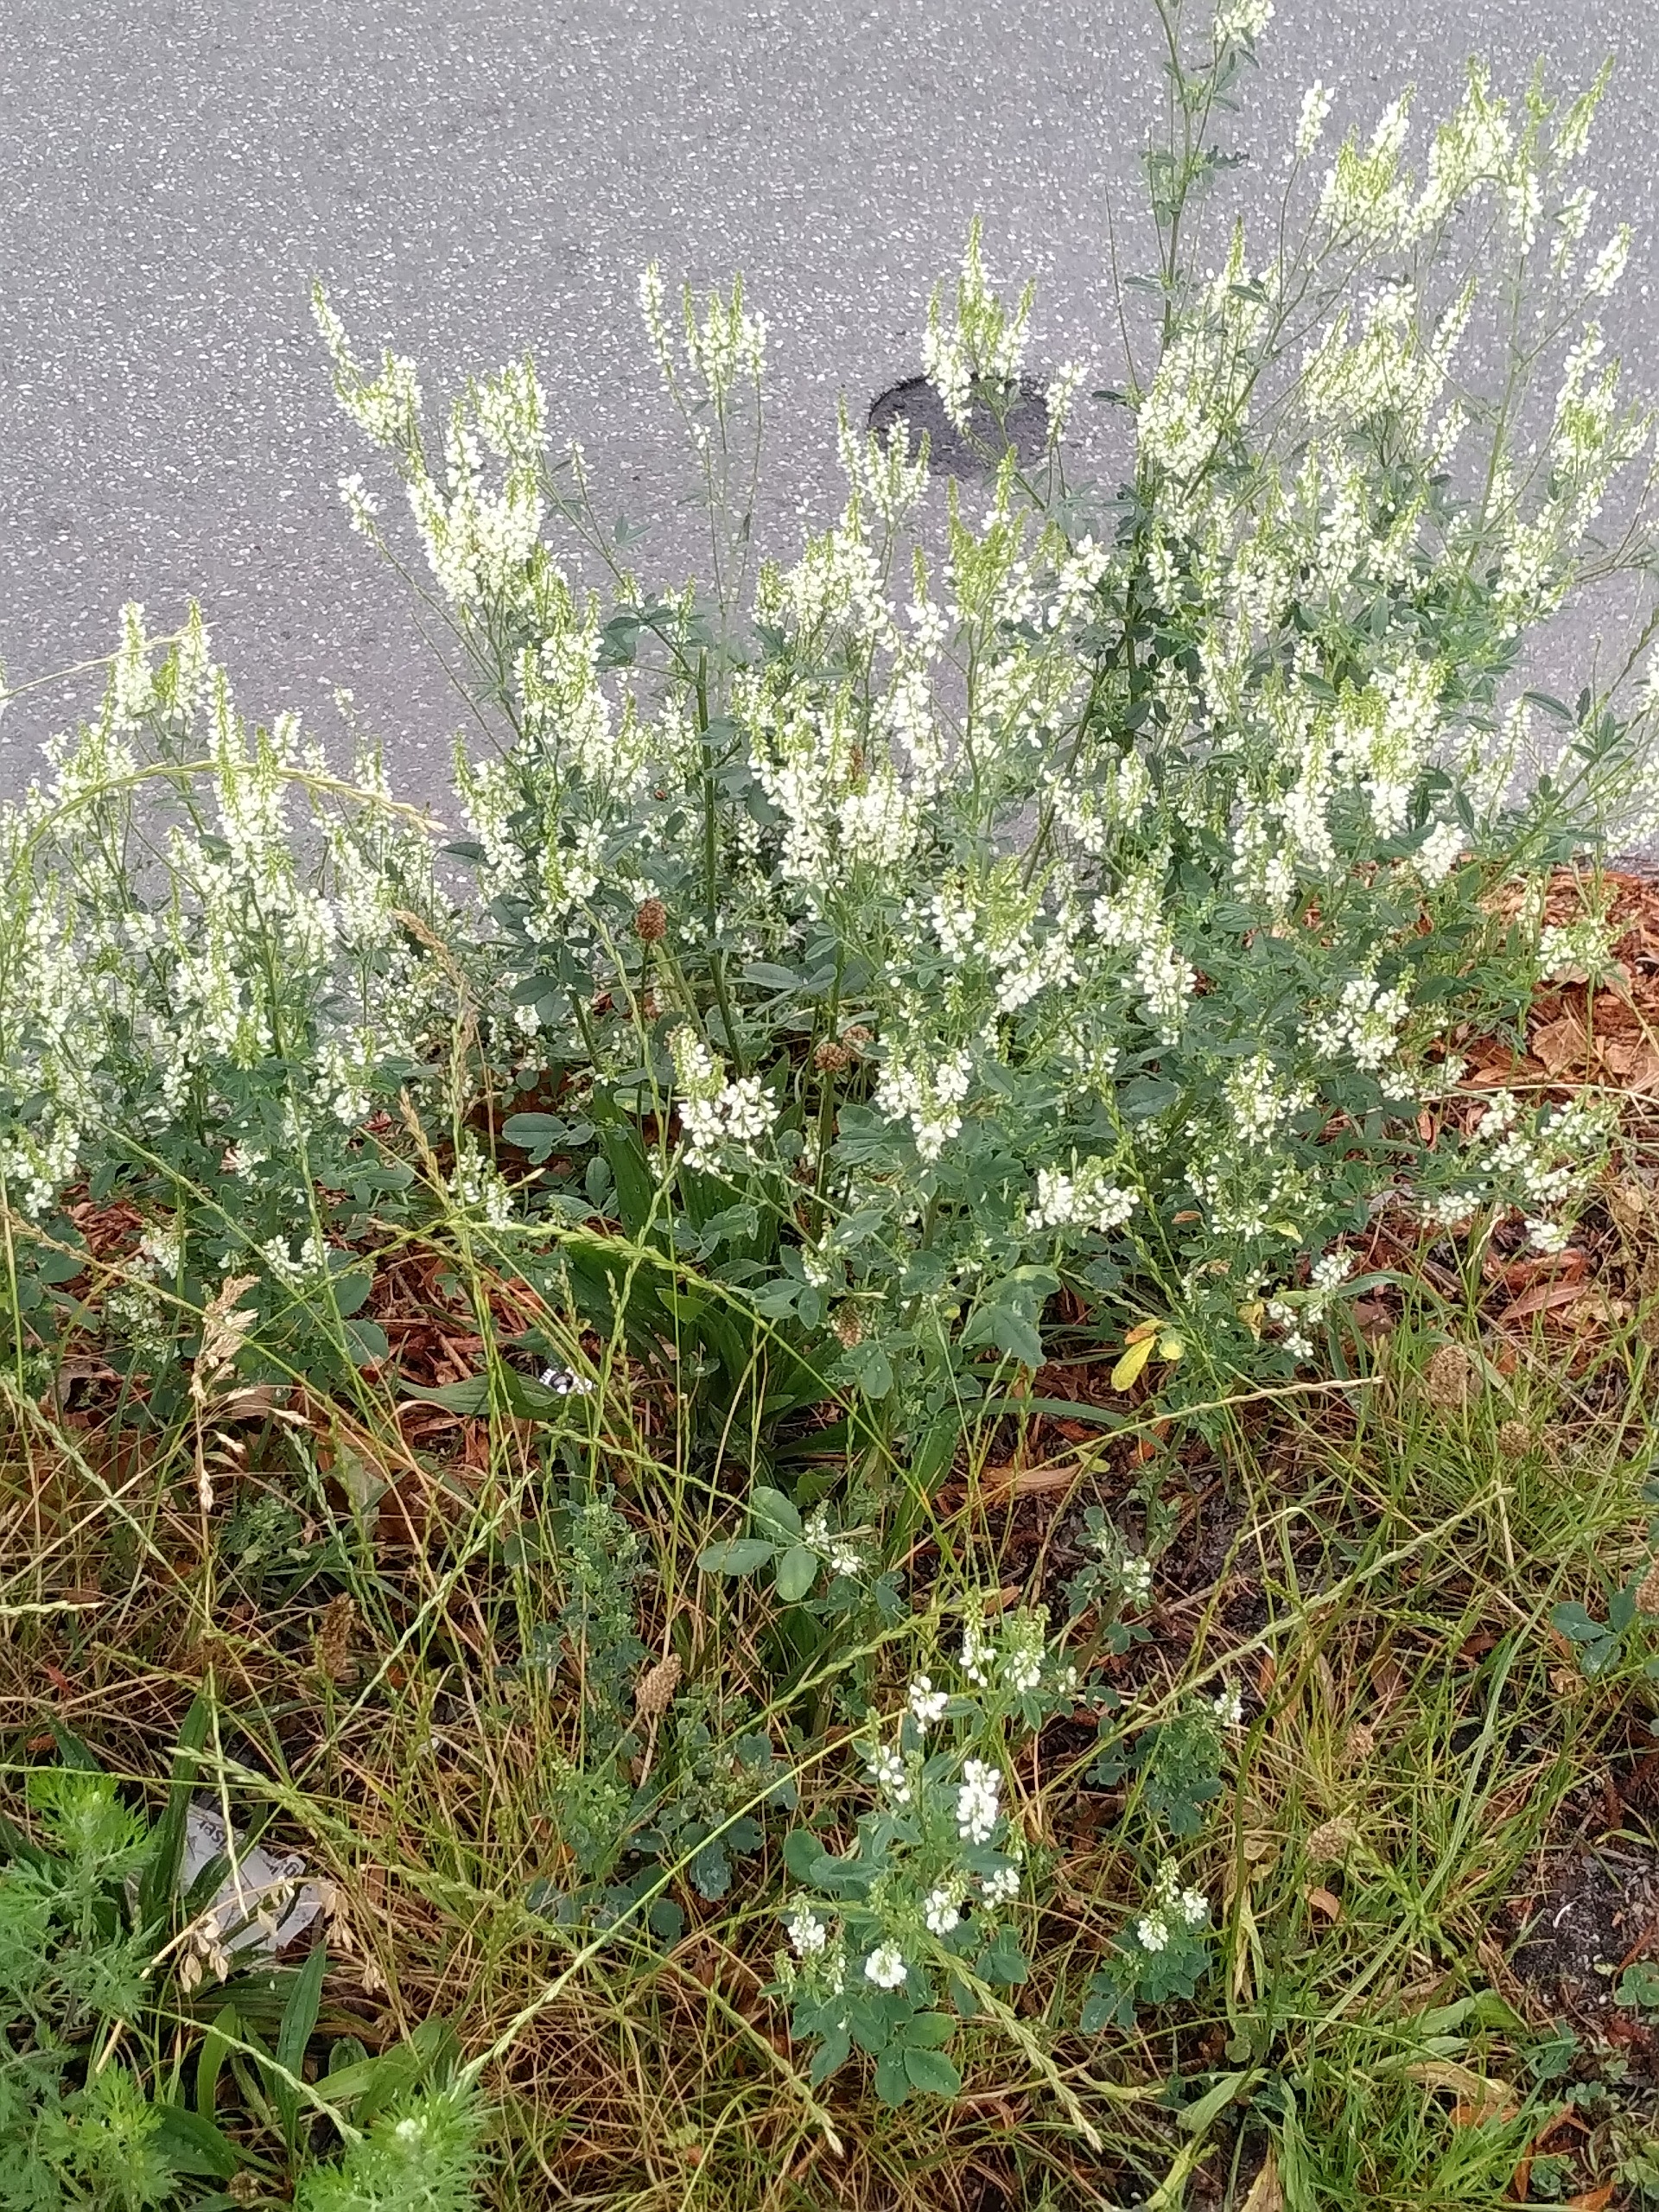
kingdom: Plantae
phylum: Tracheophyta
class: Magnoliopsida
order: Fabales
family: Fabaceae
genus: Melilotus
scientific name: Melilotus albus
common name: Hvid stenkløver
